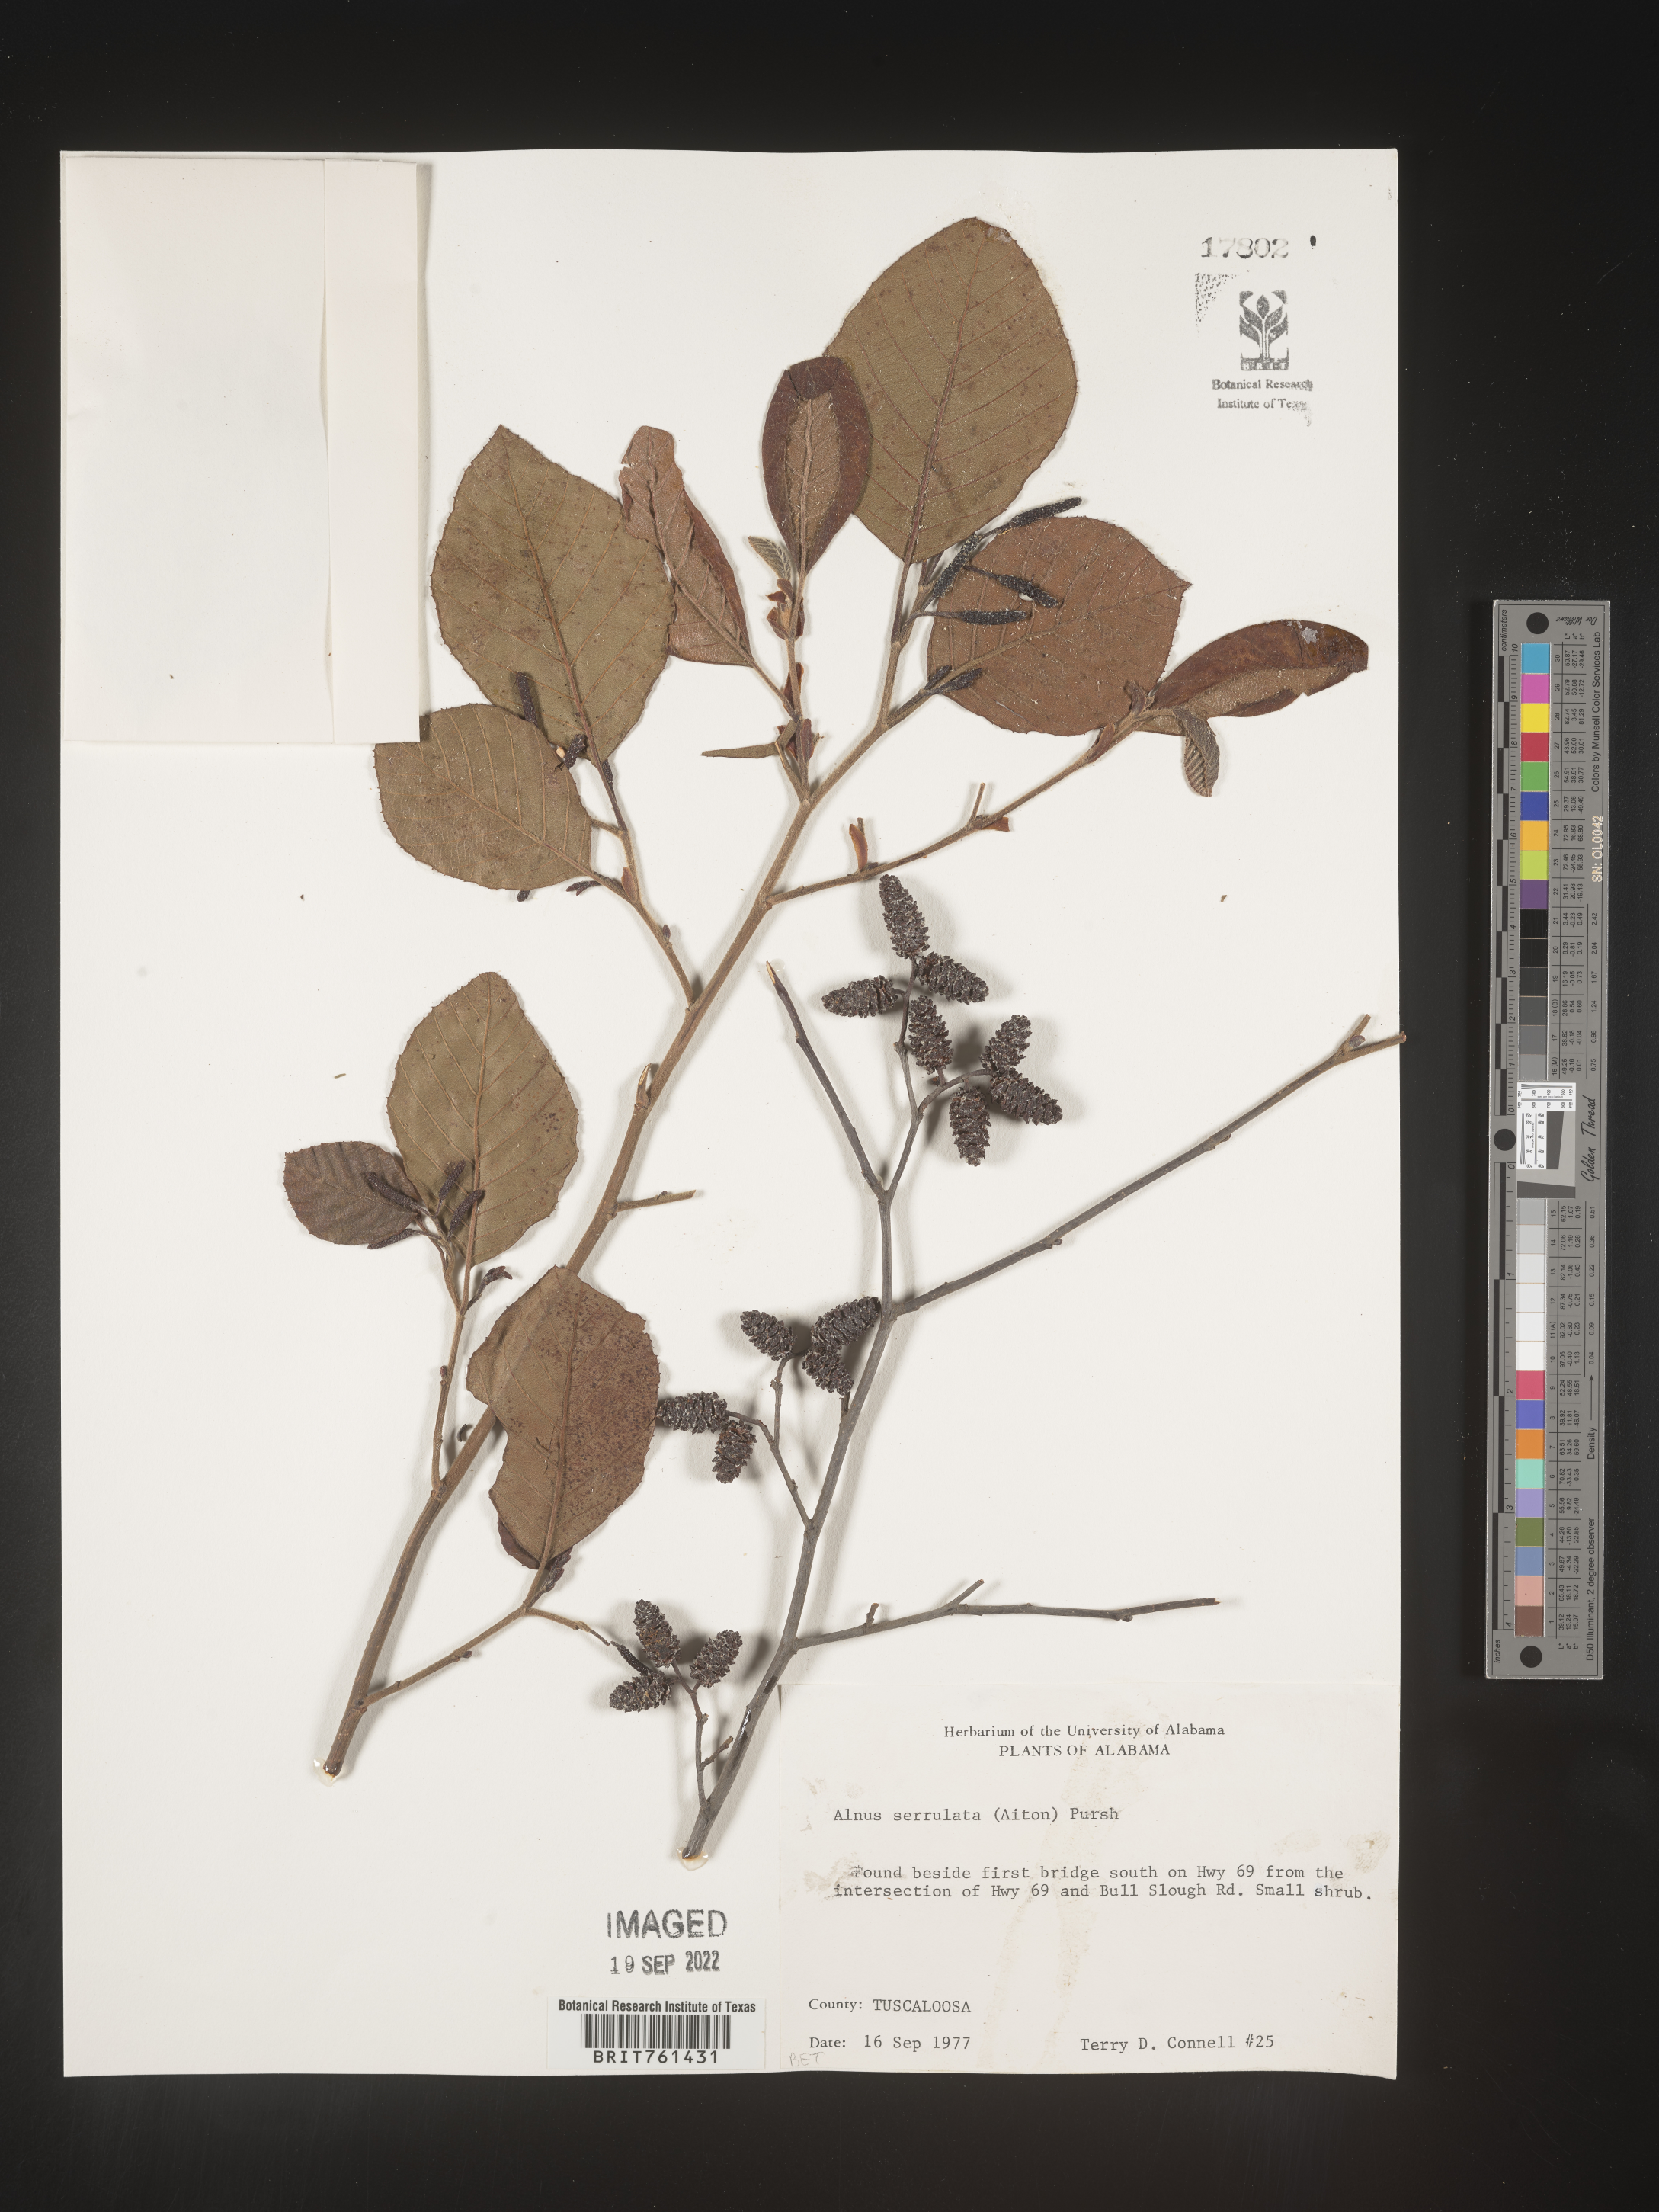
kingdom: Plantae
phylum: Tracheophyta
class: Magnoliopsida
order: Fagales
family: Betulaceae
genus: Alnus
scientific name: Alnus serrulata
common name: Hazel alder
